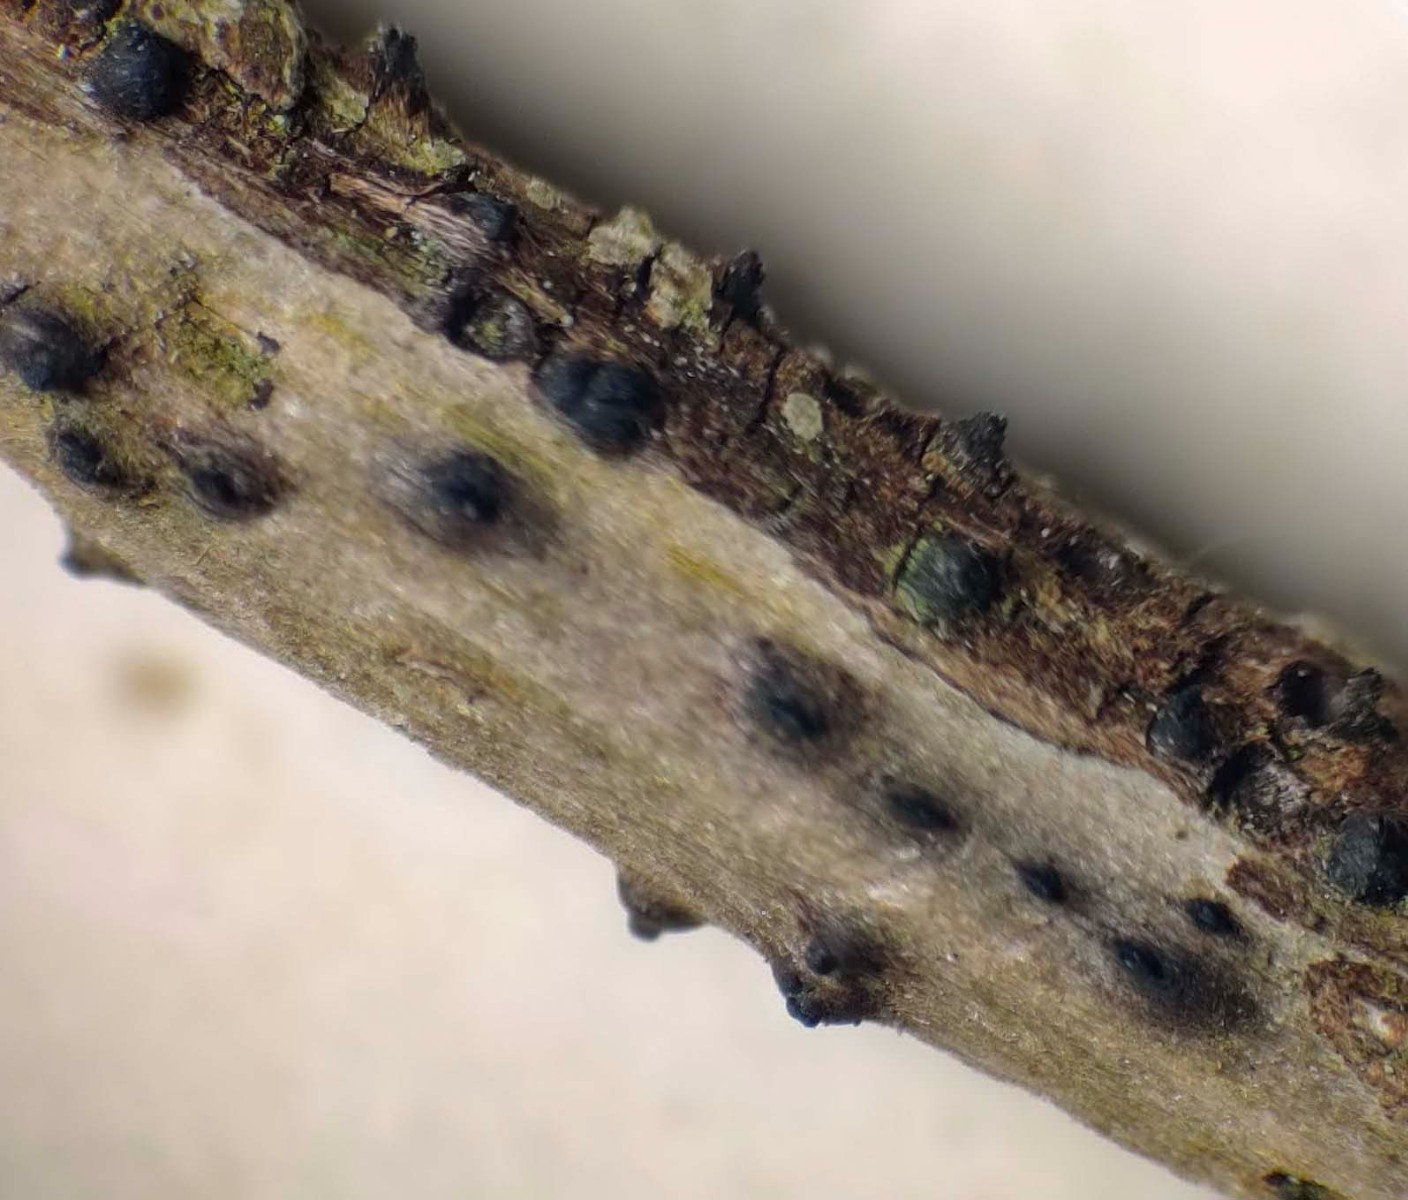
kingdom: Fungi
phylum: Ascomycota
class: Dothideomycetes
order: Pleosporales
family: Thyridariaceae
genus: Thyridaria
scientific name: Thyridaria macrostomoides
